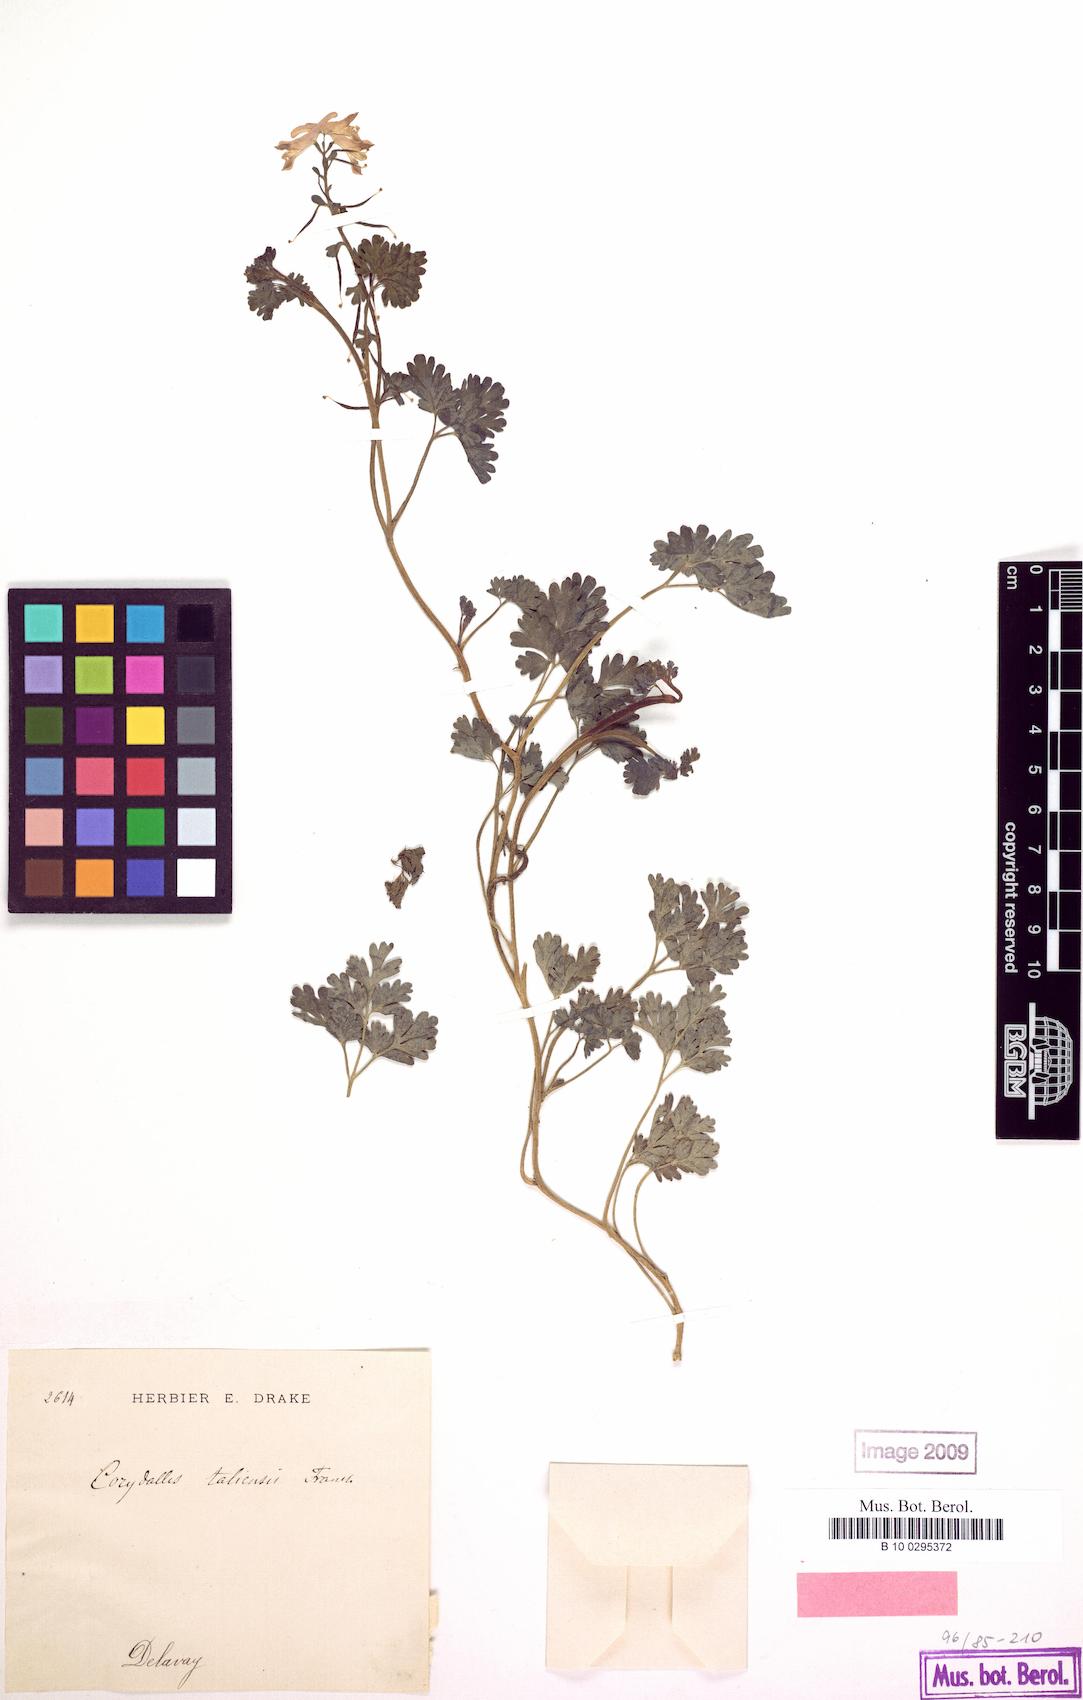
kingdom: Plantae
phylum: Tracheophyta
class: Magnoliopsida
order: Ranunculales
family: Papaveraceae
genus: Corydalis
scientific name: Corydalis taliensis
